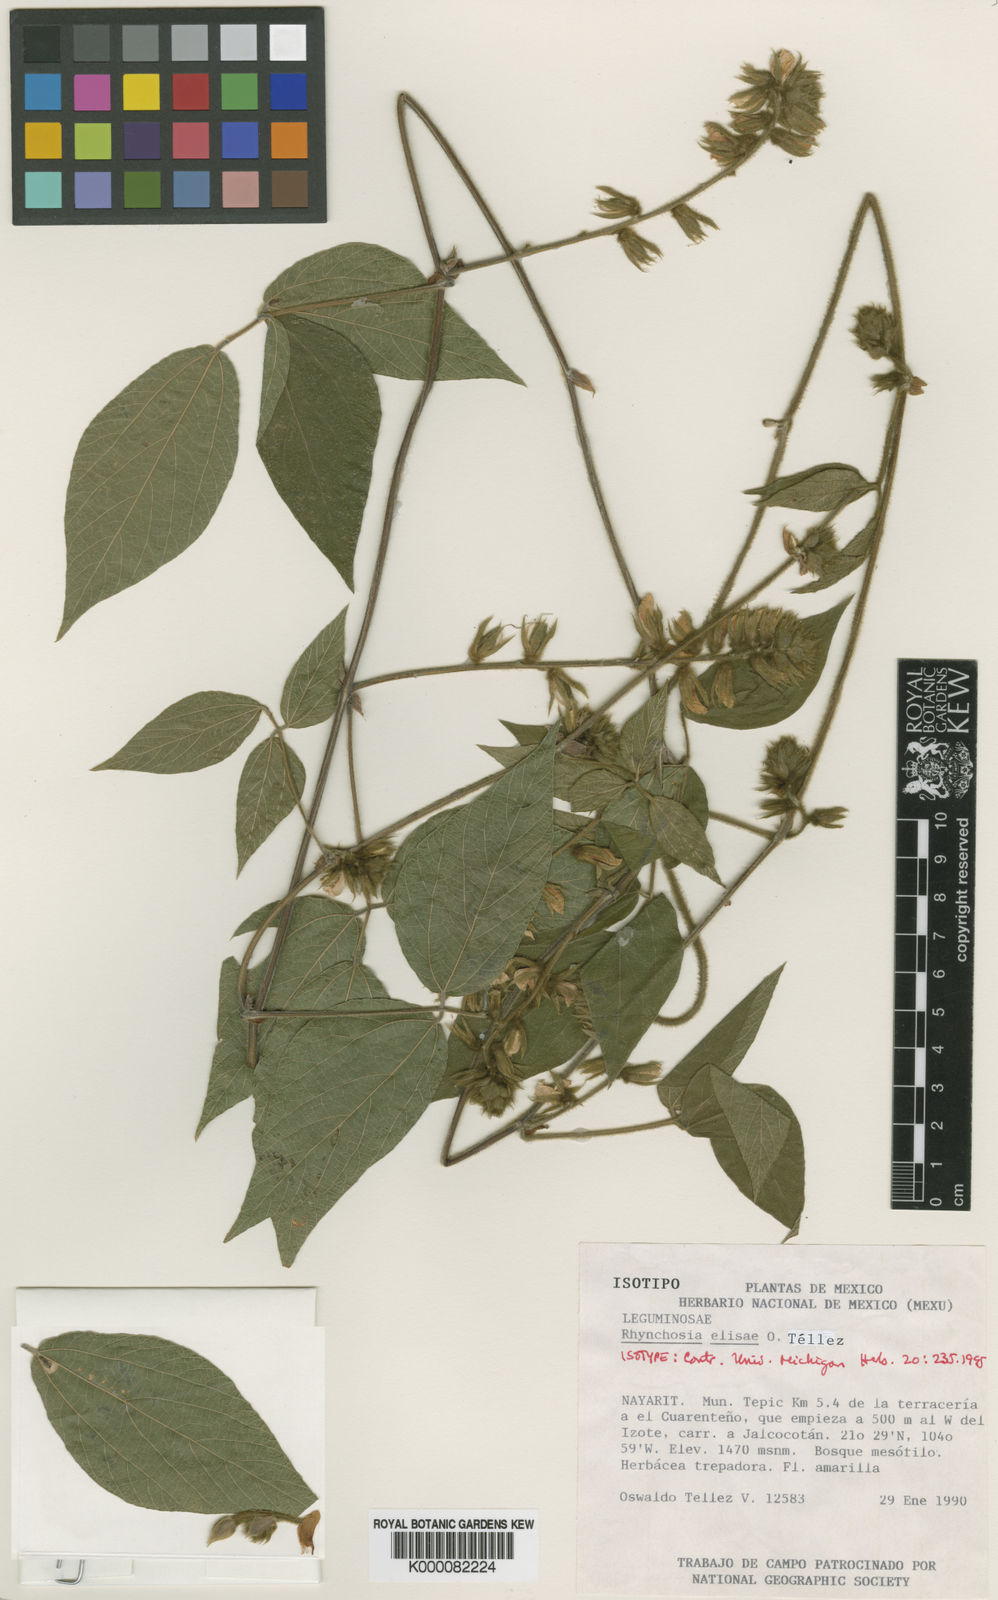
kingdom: Plantae
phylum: Tracheophyta
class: Magnoliopsida
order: Fabales
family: Fabaceae
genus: Rhynchosia
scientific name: Rhynchosia
